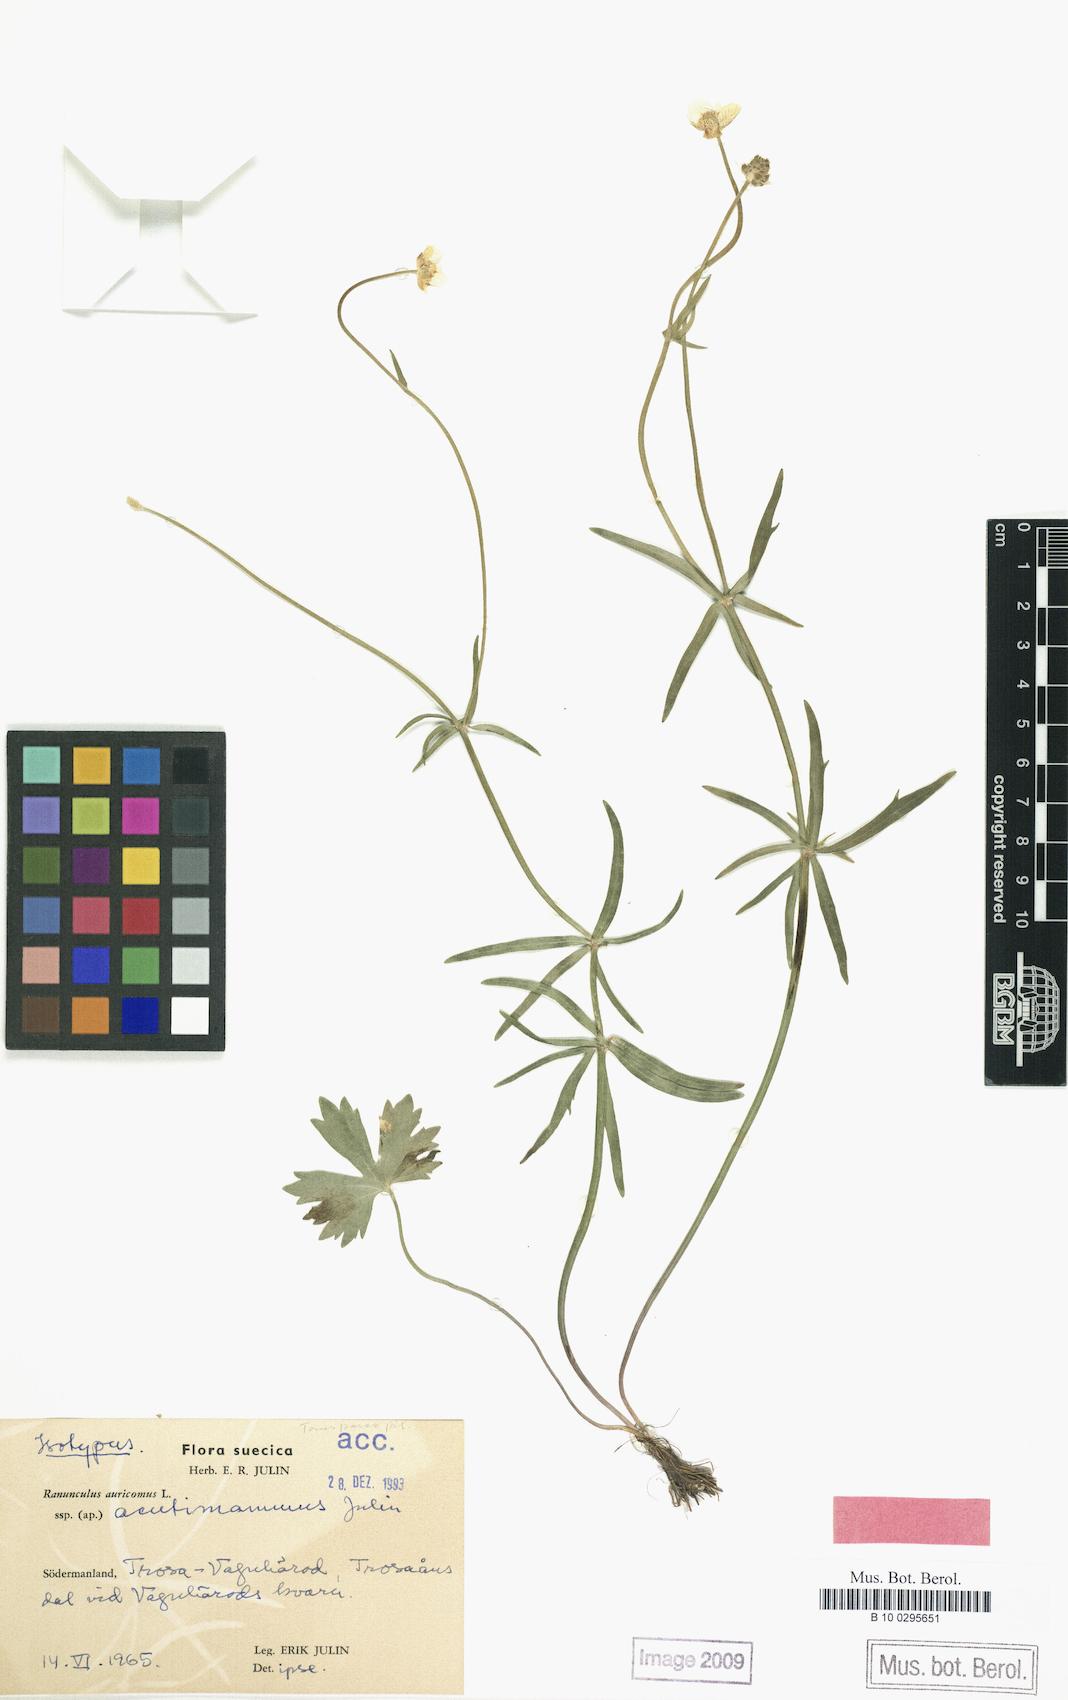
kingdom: Plantae
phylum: Tracheophyta
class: Magnoliopsida
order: Ranunculales
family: Ranunculaceae
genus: Ranunculus
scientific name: Ranunculus acutimammus
